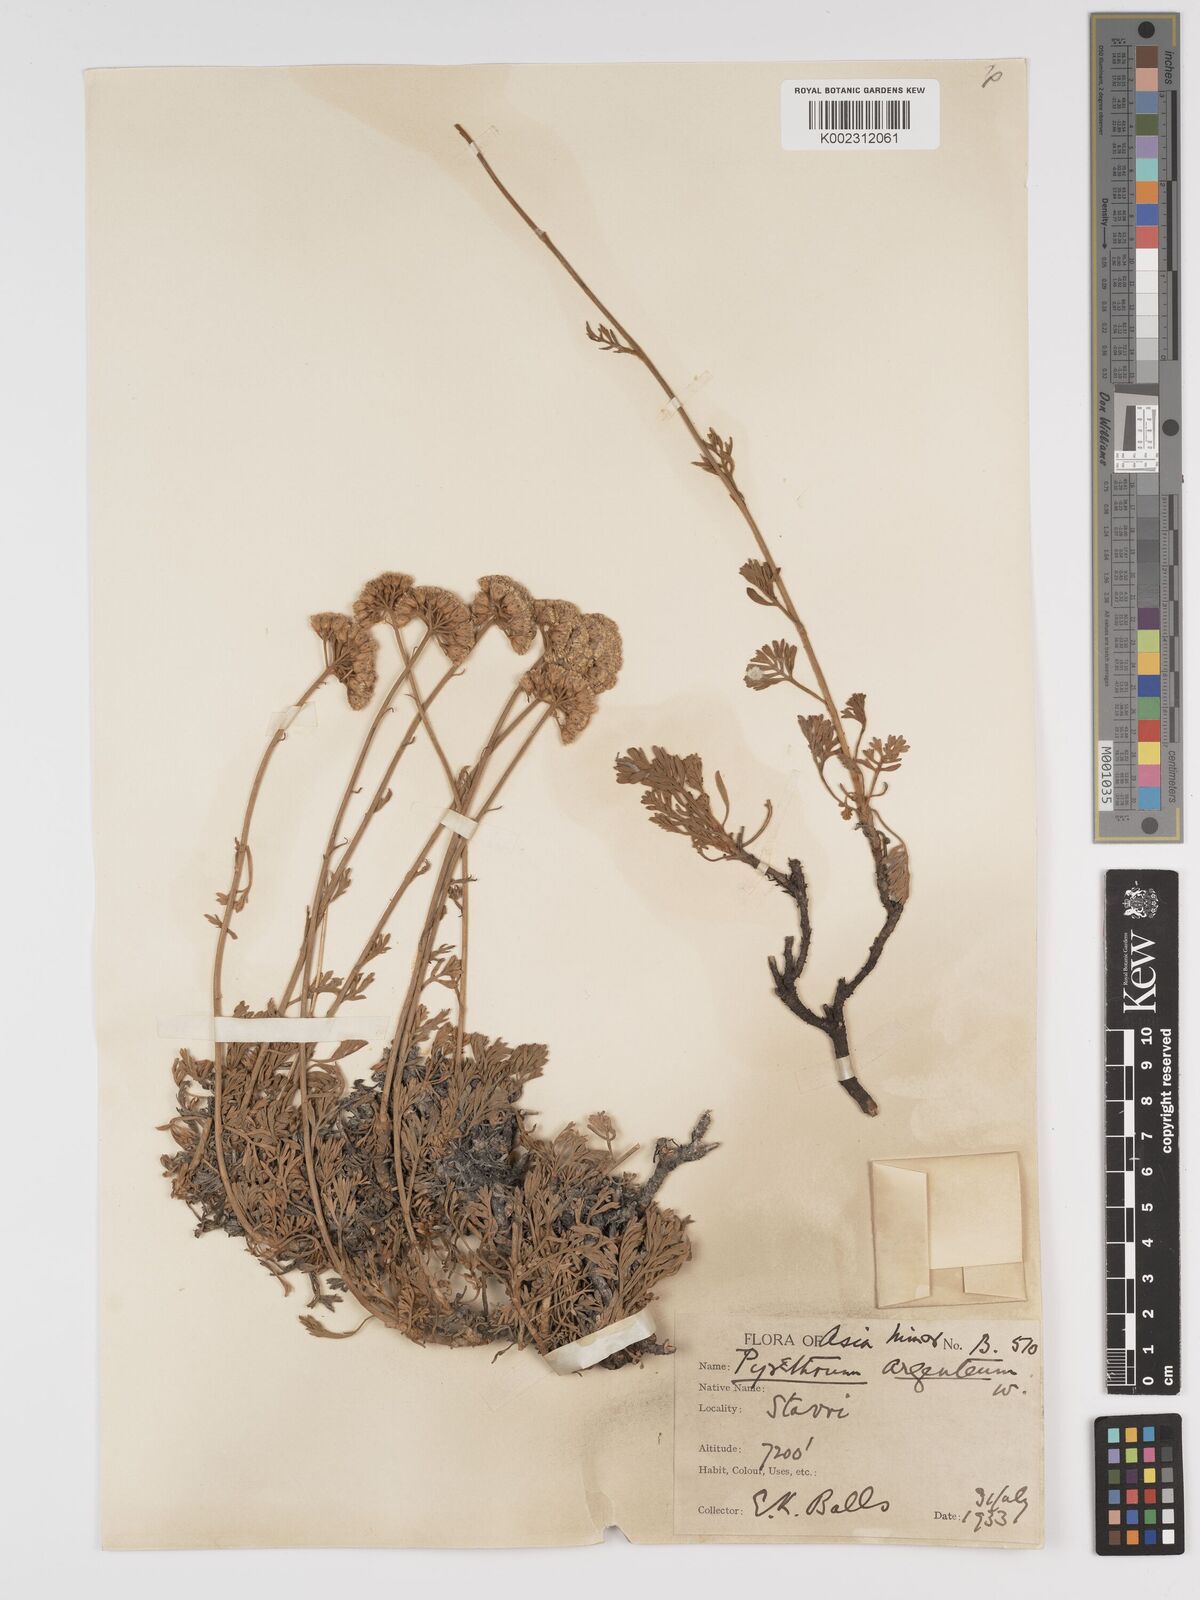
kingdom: Plantae
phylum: Tracheophyta
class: Magnoliopsida
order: Asterales
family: Asteraceae
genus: Tanacetum
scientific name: Tanacetum argenteum
